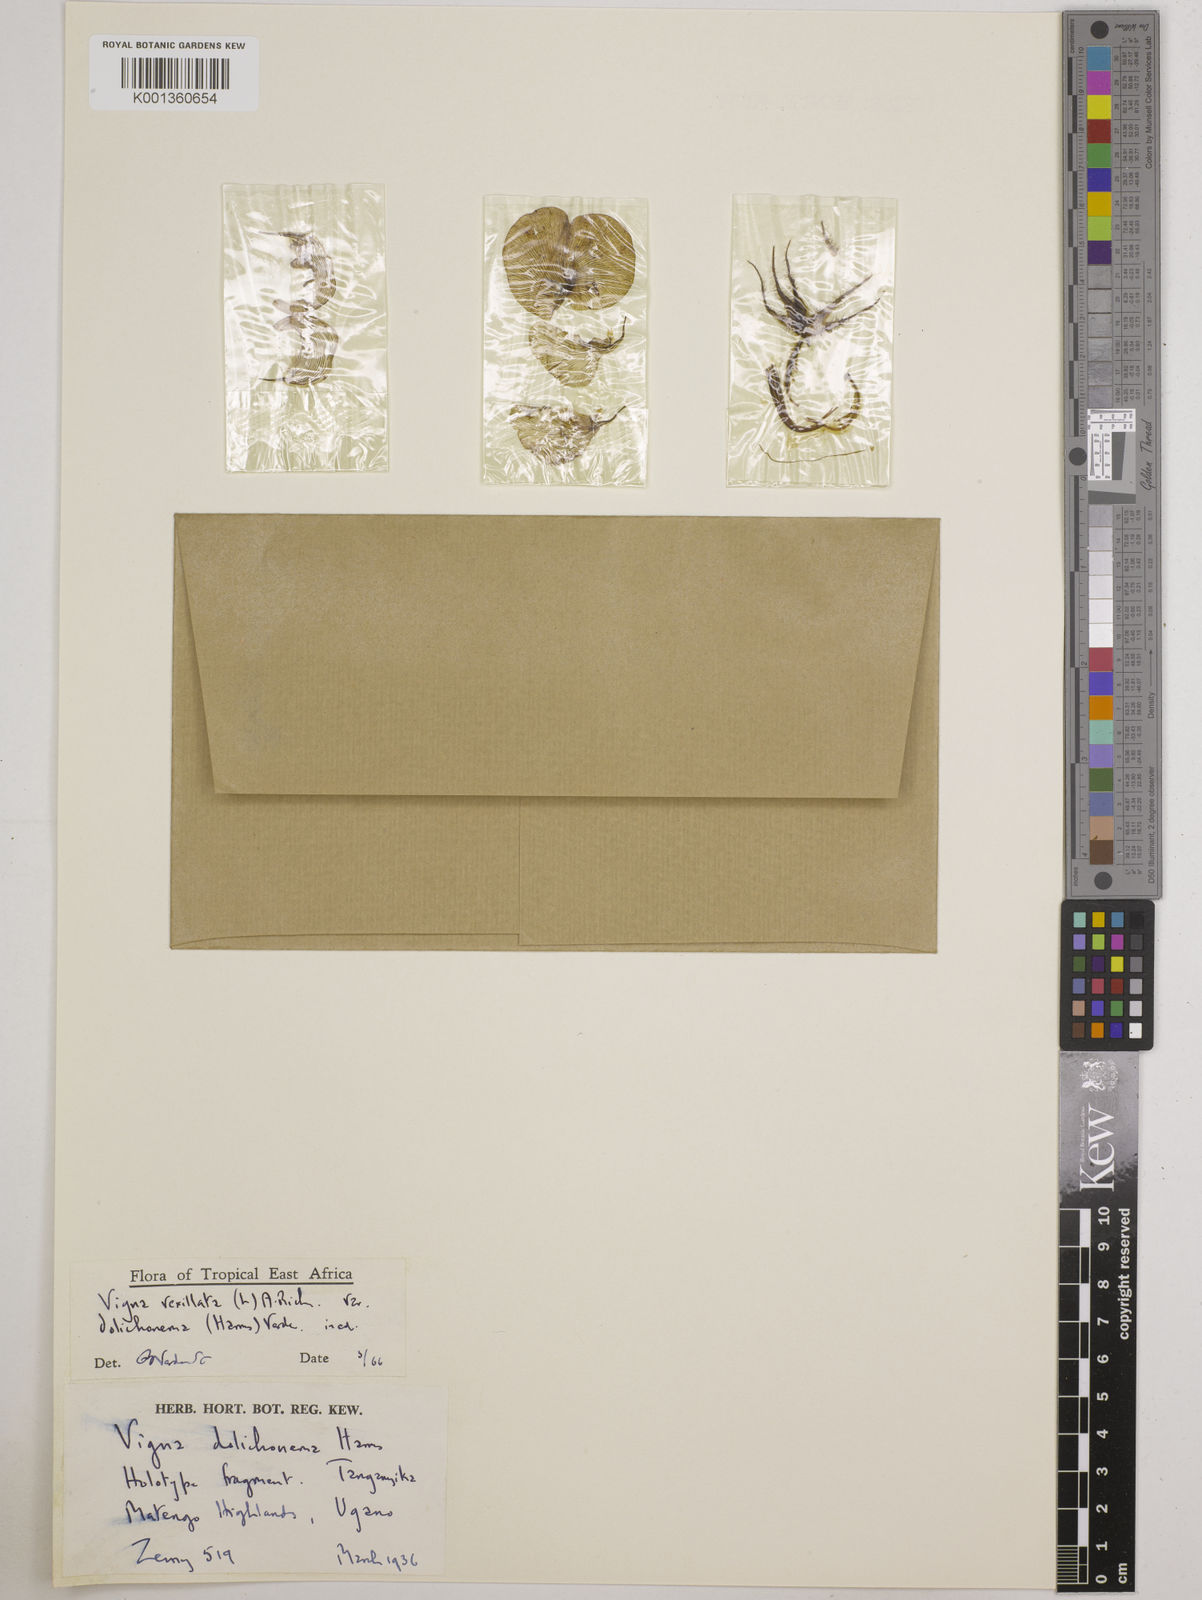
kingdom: Plantae
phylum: Tracheophyta
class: Magnoliopsida
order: Fabales
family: Fabaceae
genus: Vigna
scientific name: Vigna
